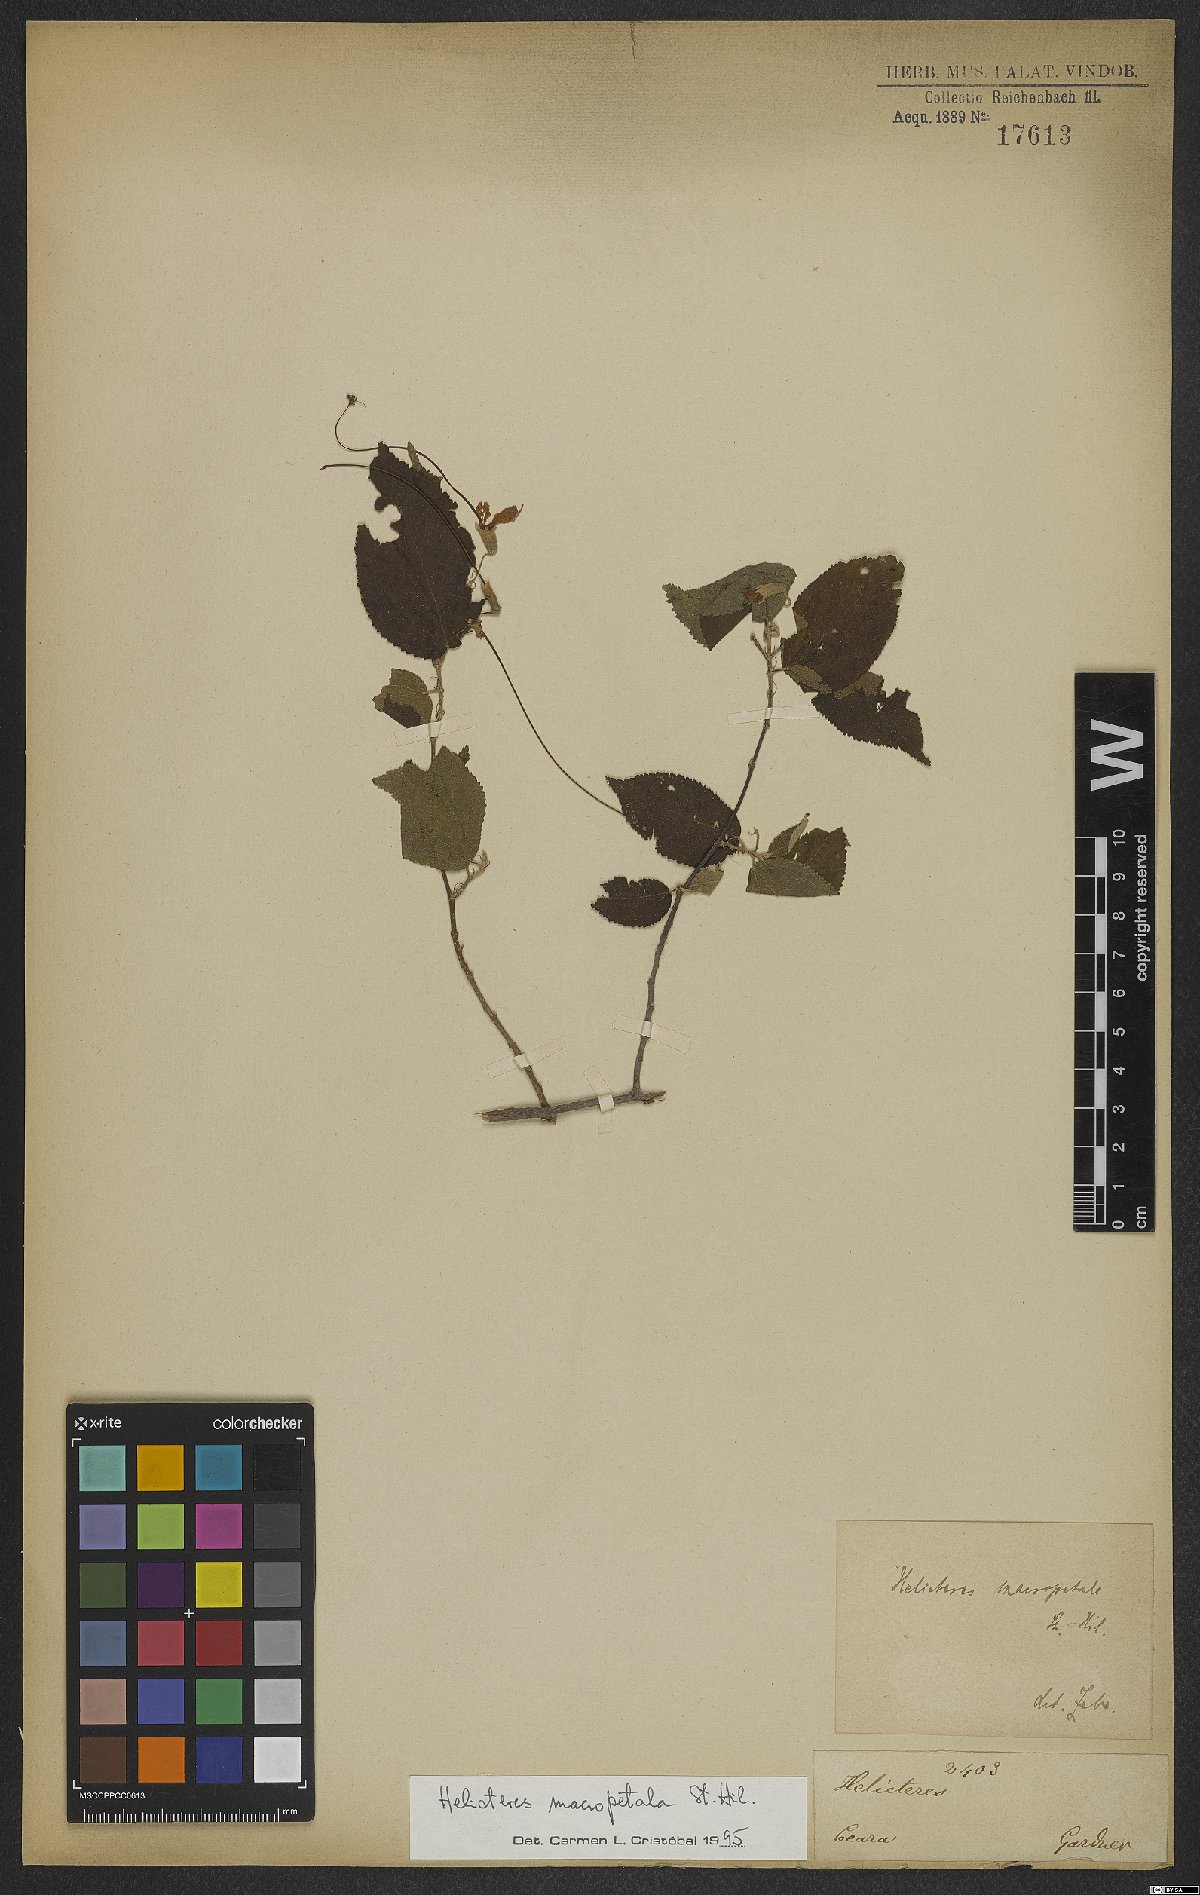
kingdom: Plantae
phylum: Tracheophyta
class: Magnoliopsida
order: Malvales
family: Malvaceae
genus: Helicteres
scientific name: Helicteres macropetala
